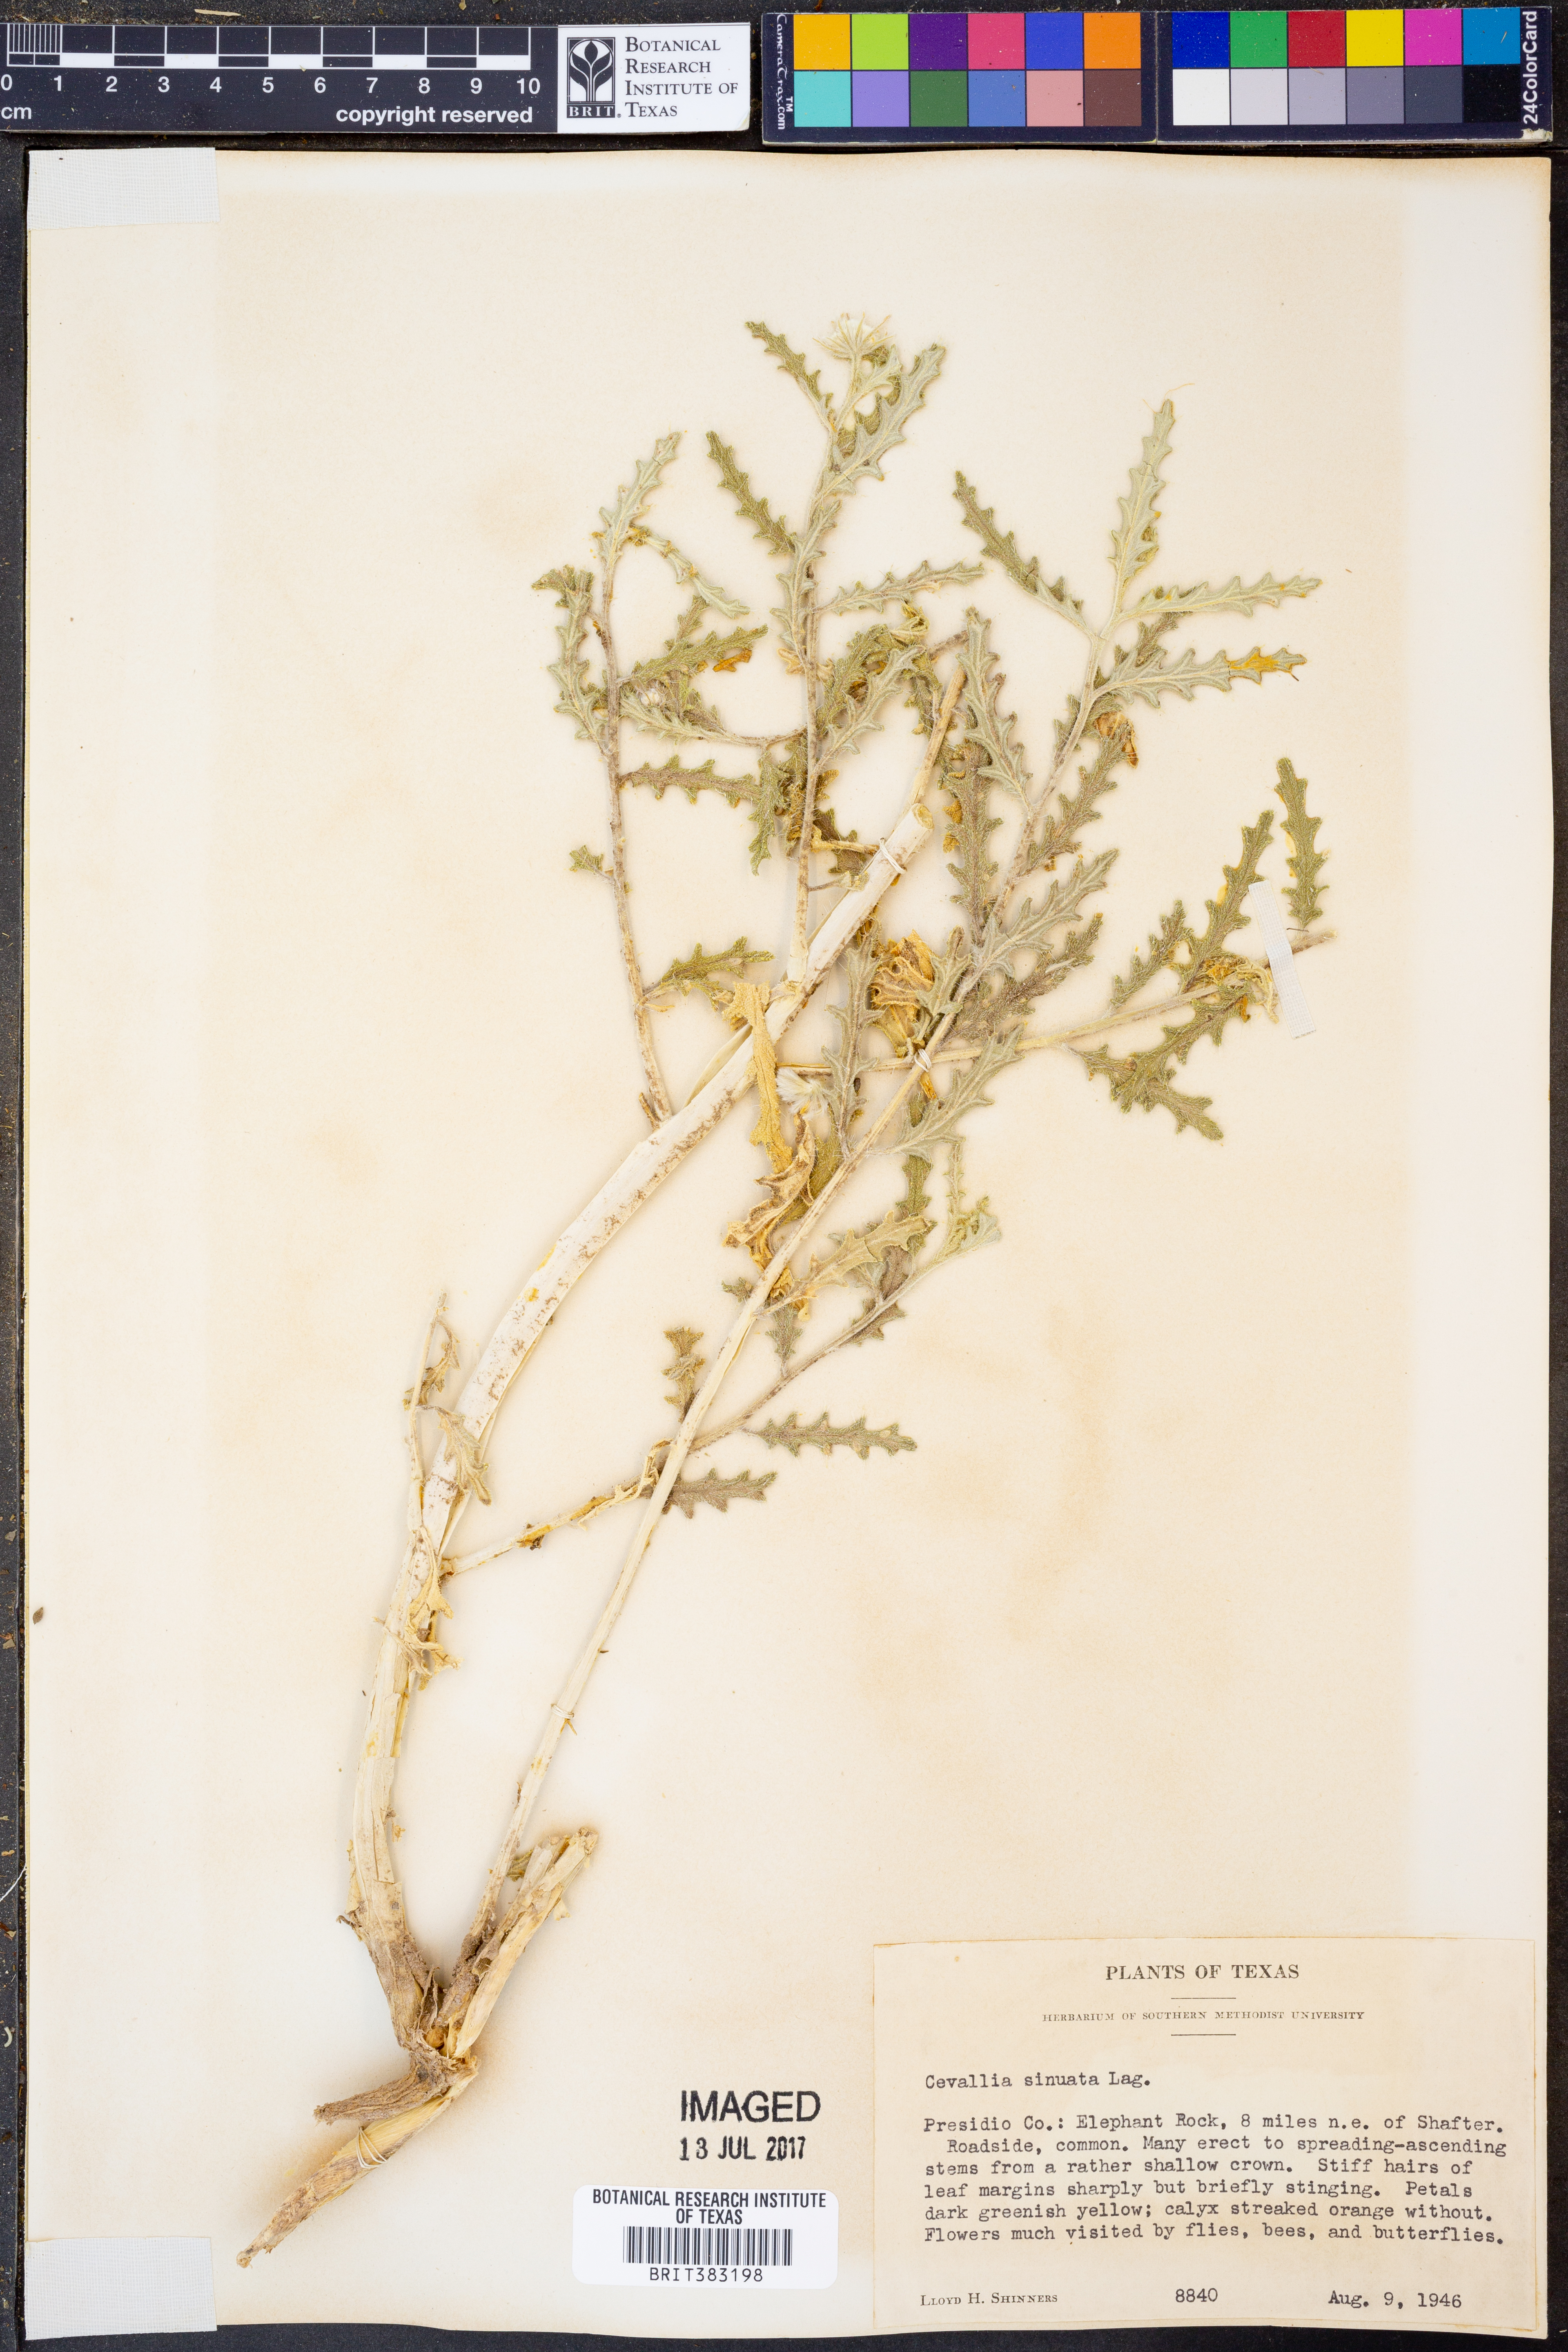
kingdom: Plantae
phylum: Tracheophyta
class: Magnoliopsida
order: Cornales
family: Loasaceae
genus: Cevallia
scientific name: Cevallia sinuata
